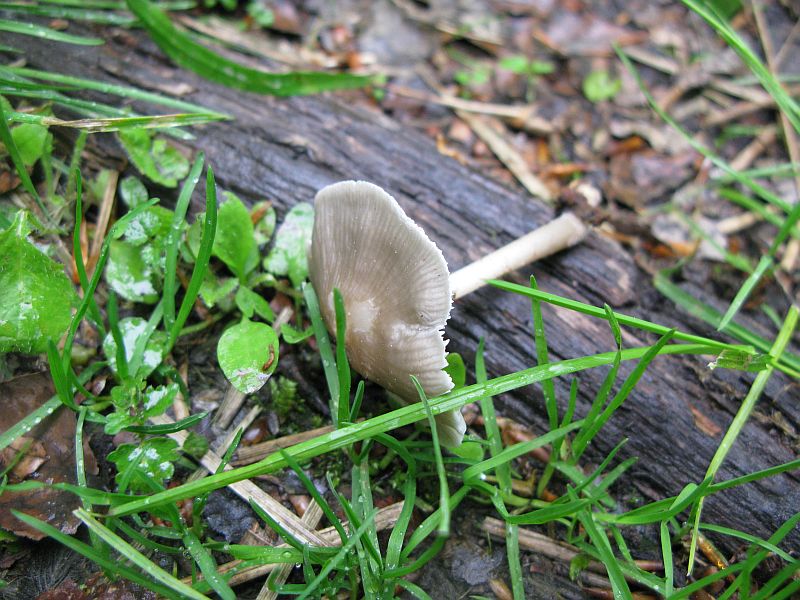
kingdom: Fungi
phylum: Basidiomycota
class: Agaricomycetes
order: Agaricales
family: Mycenaceae
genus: Mycena
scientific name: Mycena galericulata
